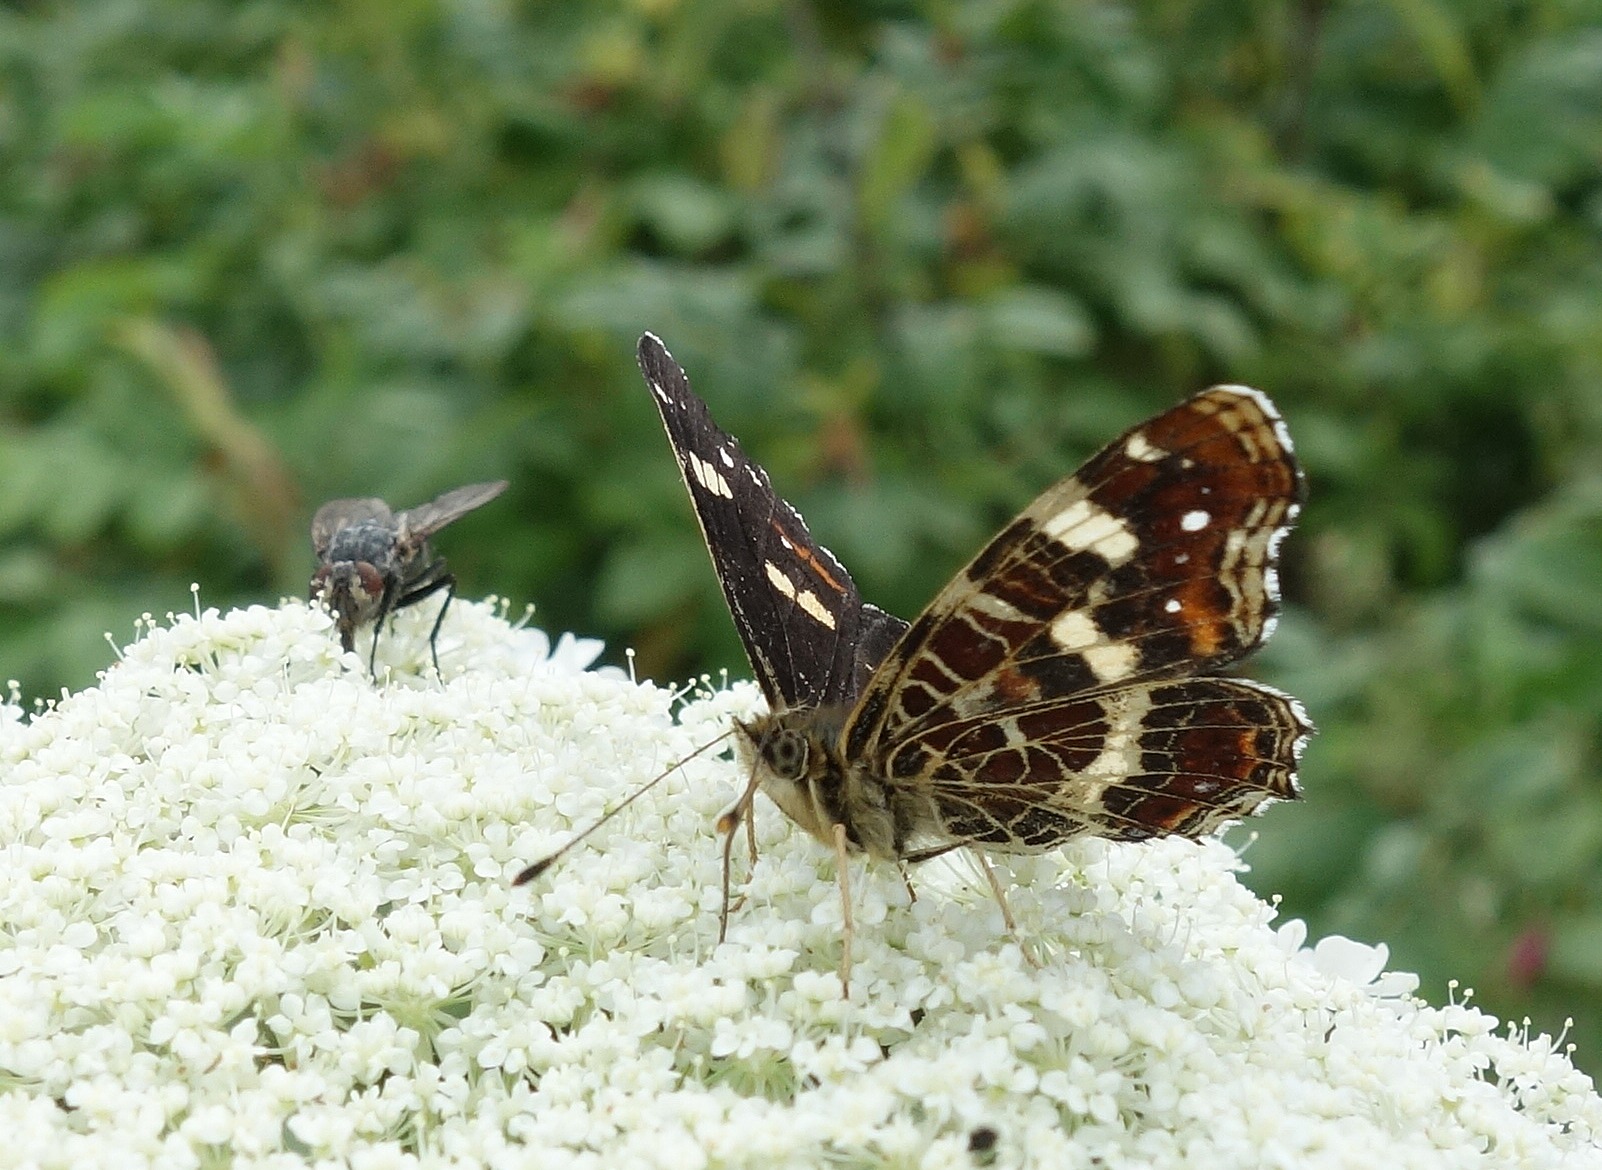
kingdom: Animalia
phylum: Arthropoda
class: Insecta
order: Lepidoptera
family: Nymphalidae
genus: Araschnia
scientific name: Araschnia levana
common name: Nældesommerfugl
